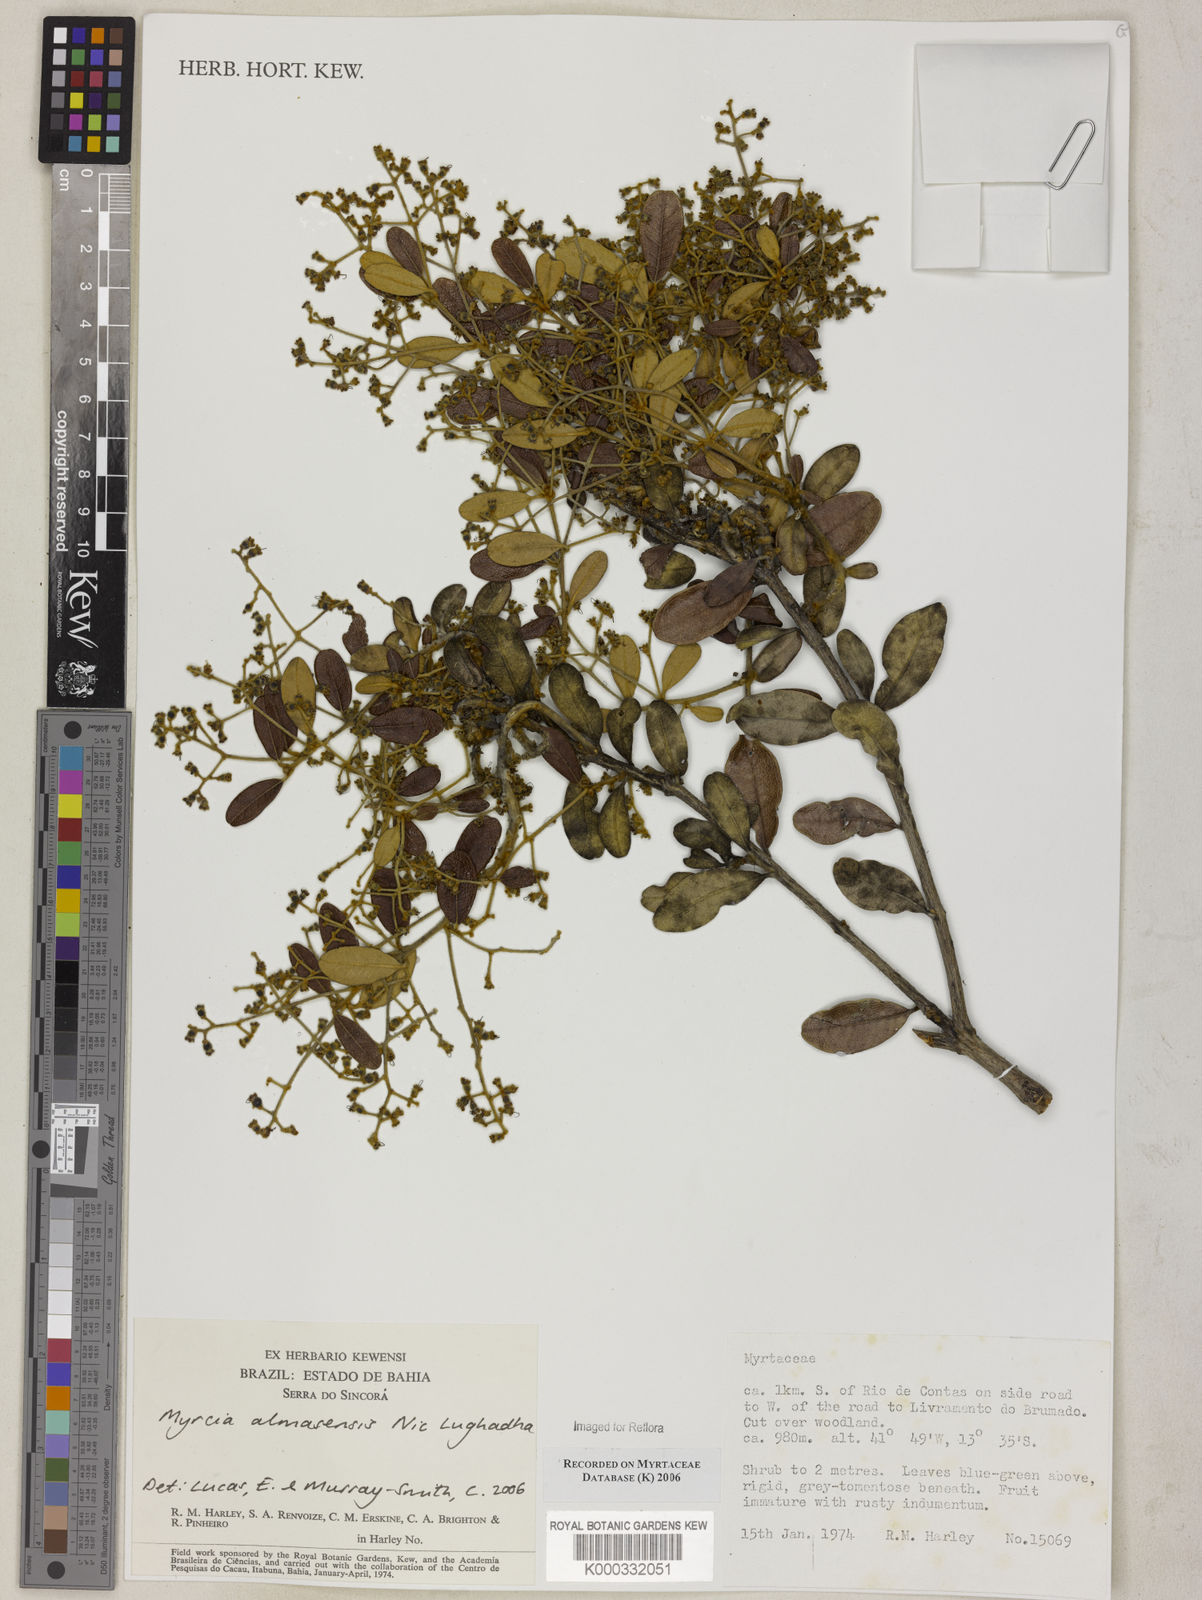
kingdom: Plantae
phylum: Tracheophyta
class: Magnoliopsida
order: Myrtales
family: Myrtaceae
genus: Myrcia
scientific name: Myrcia almasensis
